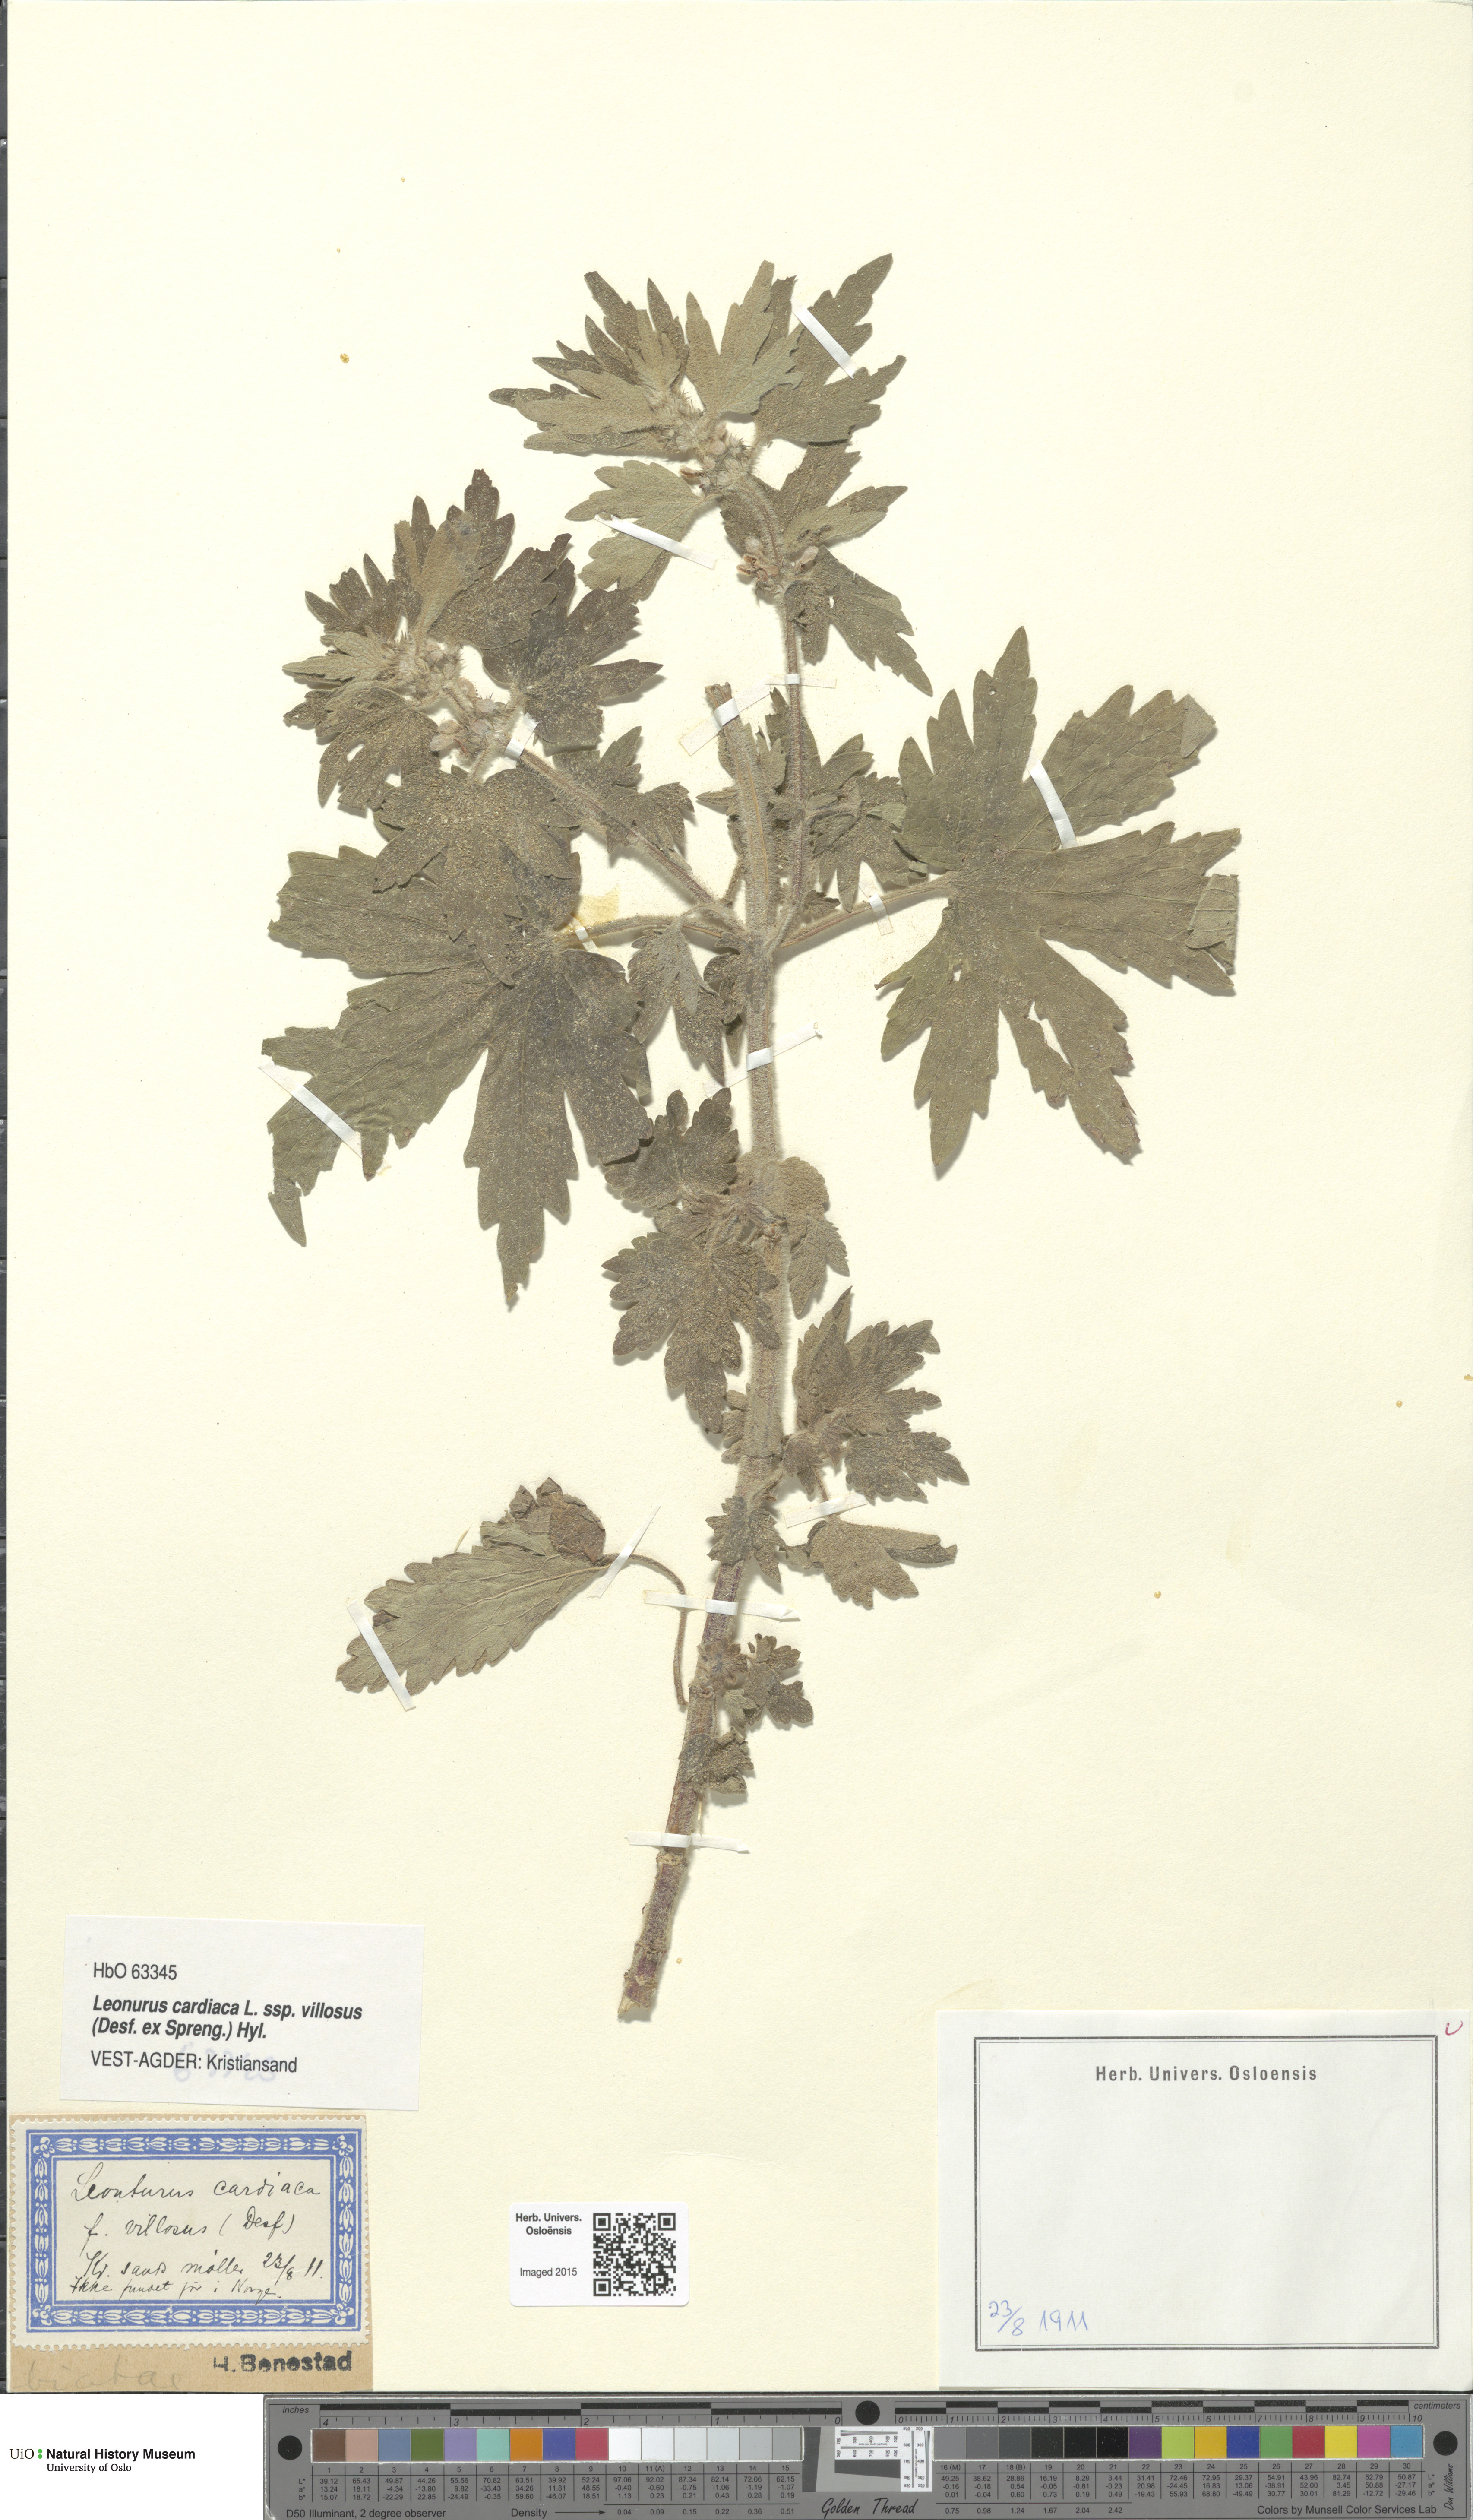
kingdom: Plantae
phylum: Tracheophyta
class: Magnoliopsida
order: Lamiales
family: Lamiaceae
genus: Leonurus
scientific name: Leonurus quinquelobatus
